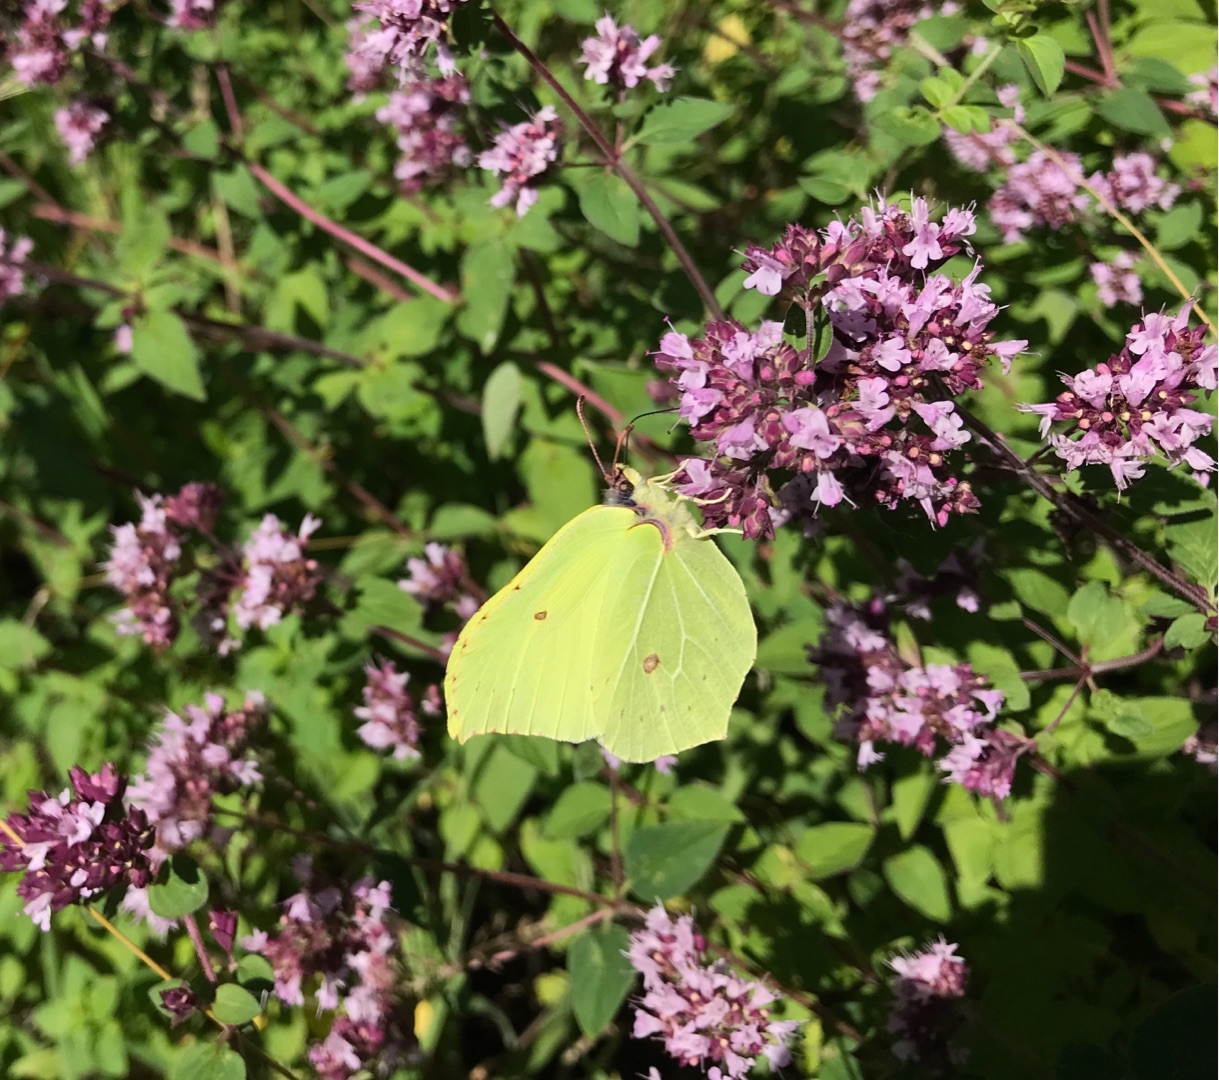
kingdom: Animalia
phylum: Arthropoda
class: Insecta
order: Lepidoptera
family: Pieridae
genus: Gonepteryx
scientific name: Gonepteryx rhamni
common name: Citronsommerfugl
